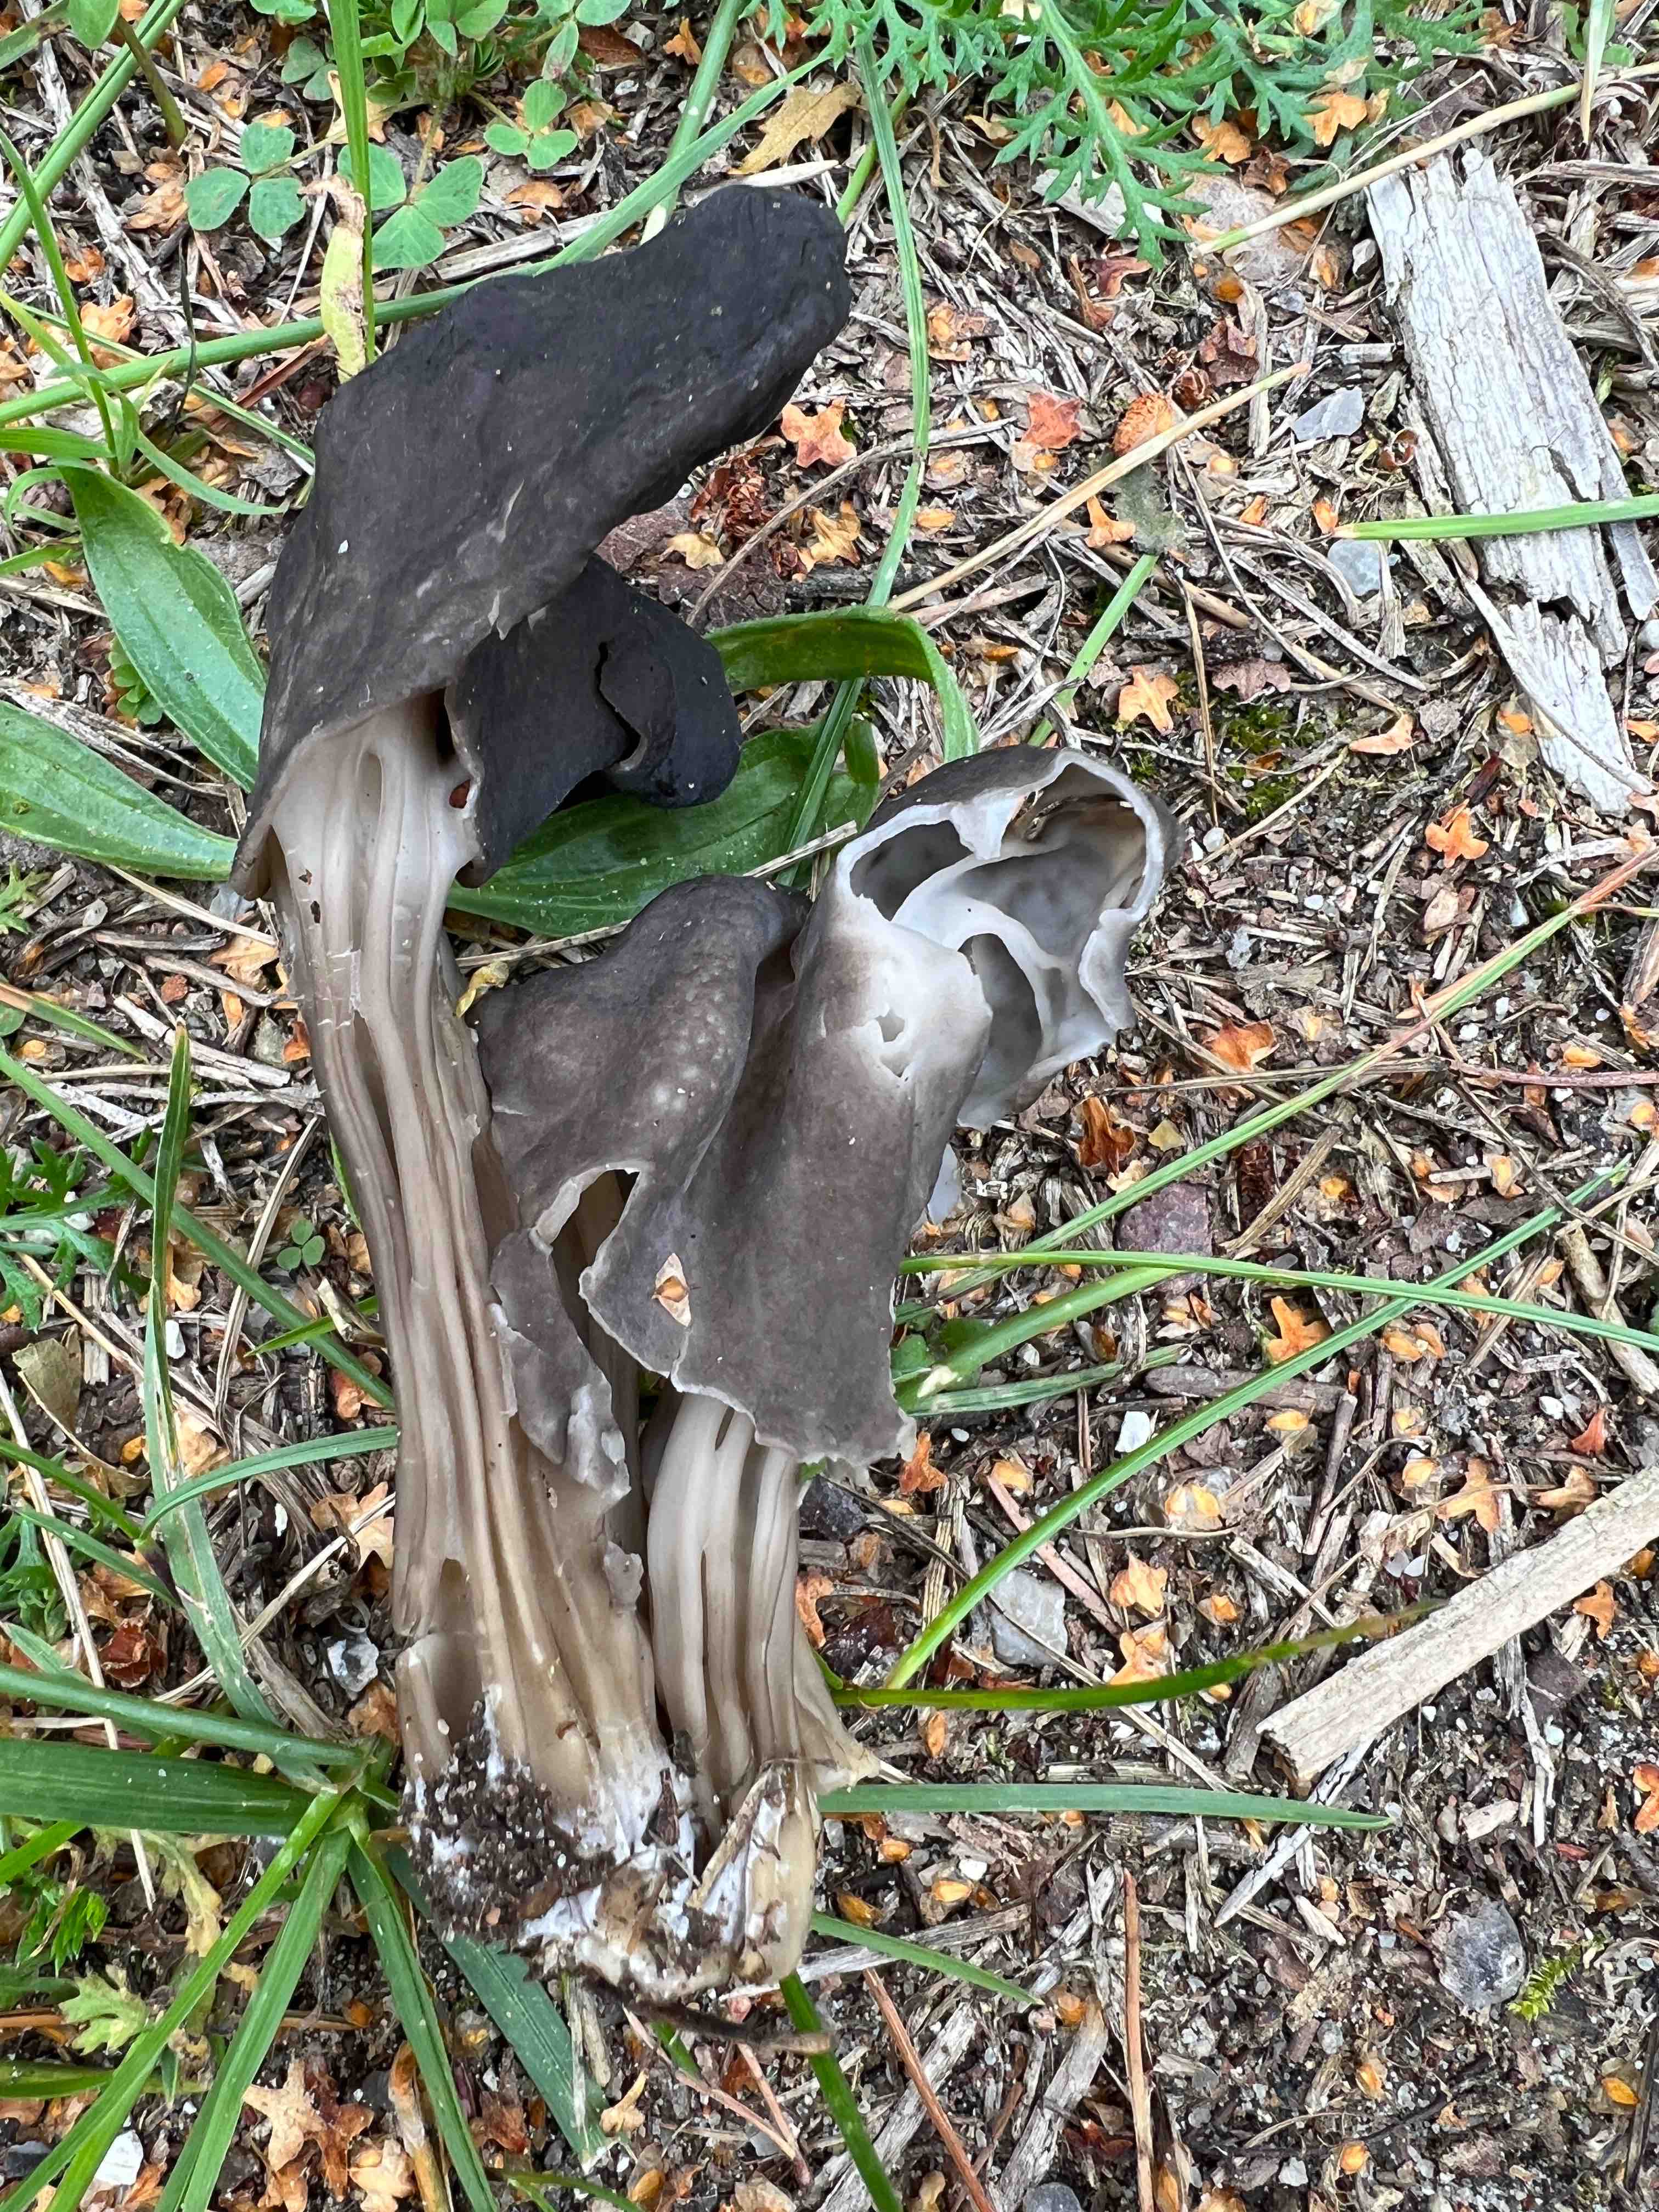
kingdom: Fungi
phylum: Ascomycota
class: Pezizomycetes
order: Pezizales
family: Helvellaceae
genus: Helvella
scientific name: Helvella lacunosa
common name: grubet foldhat
